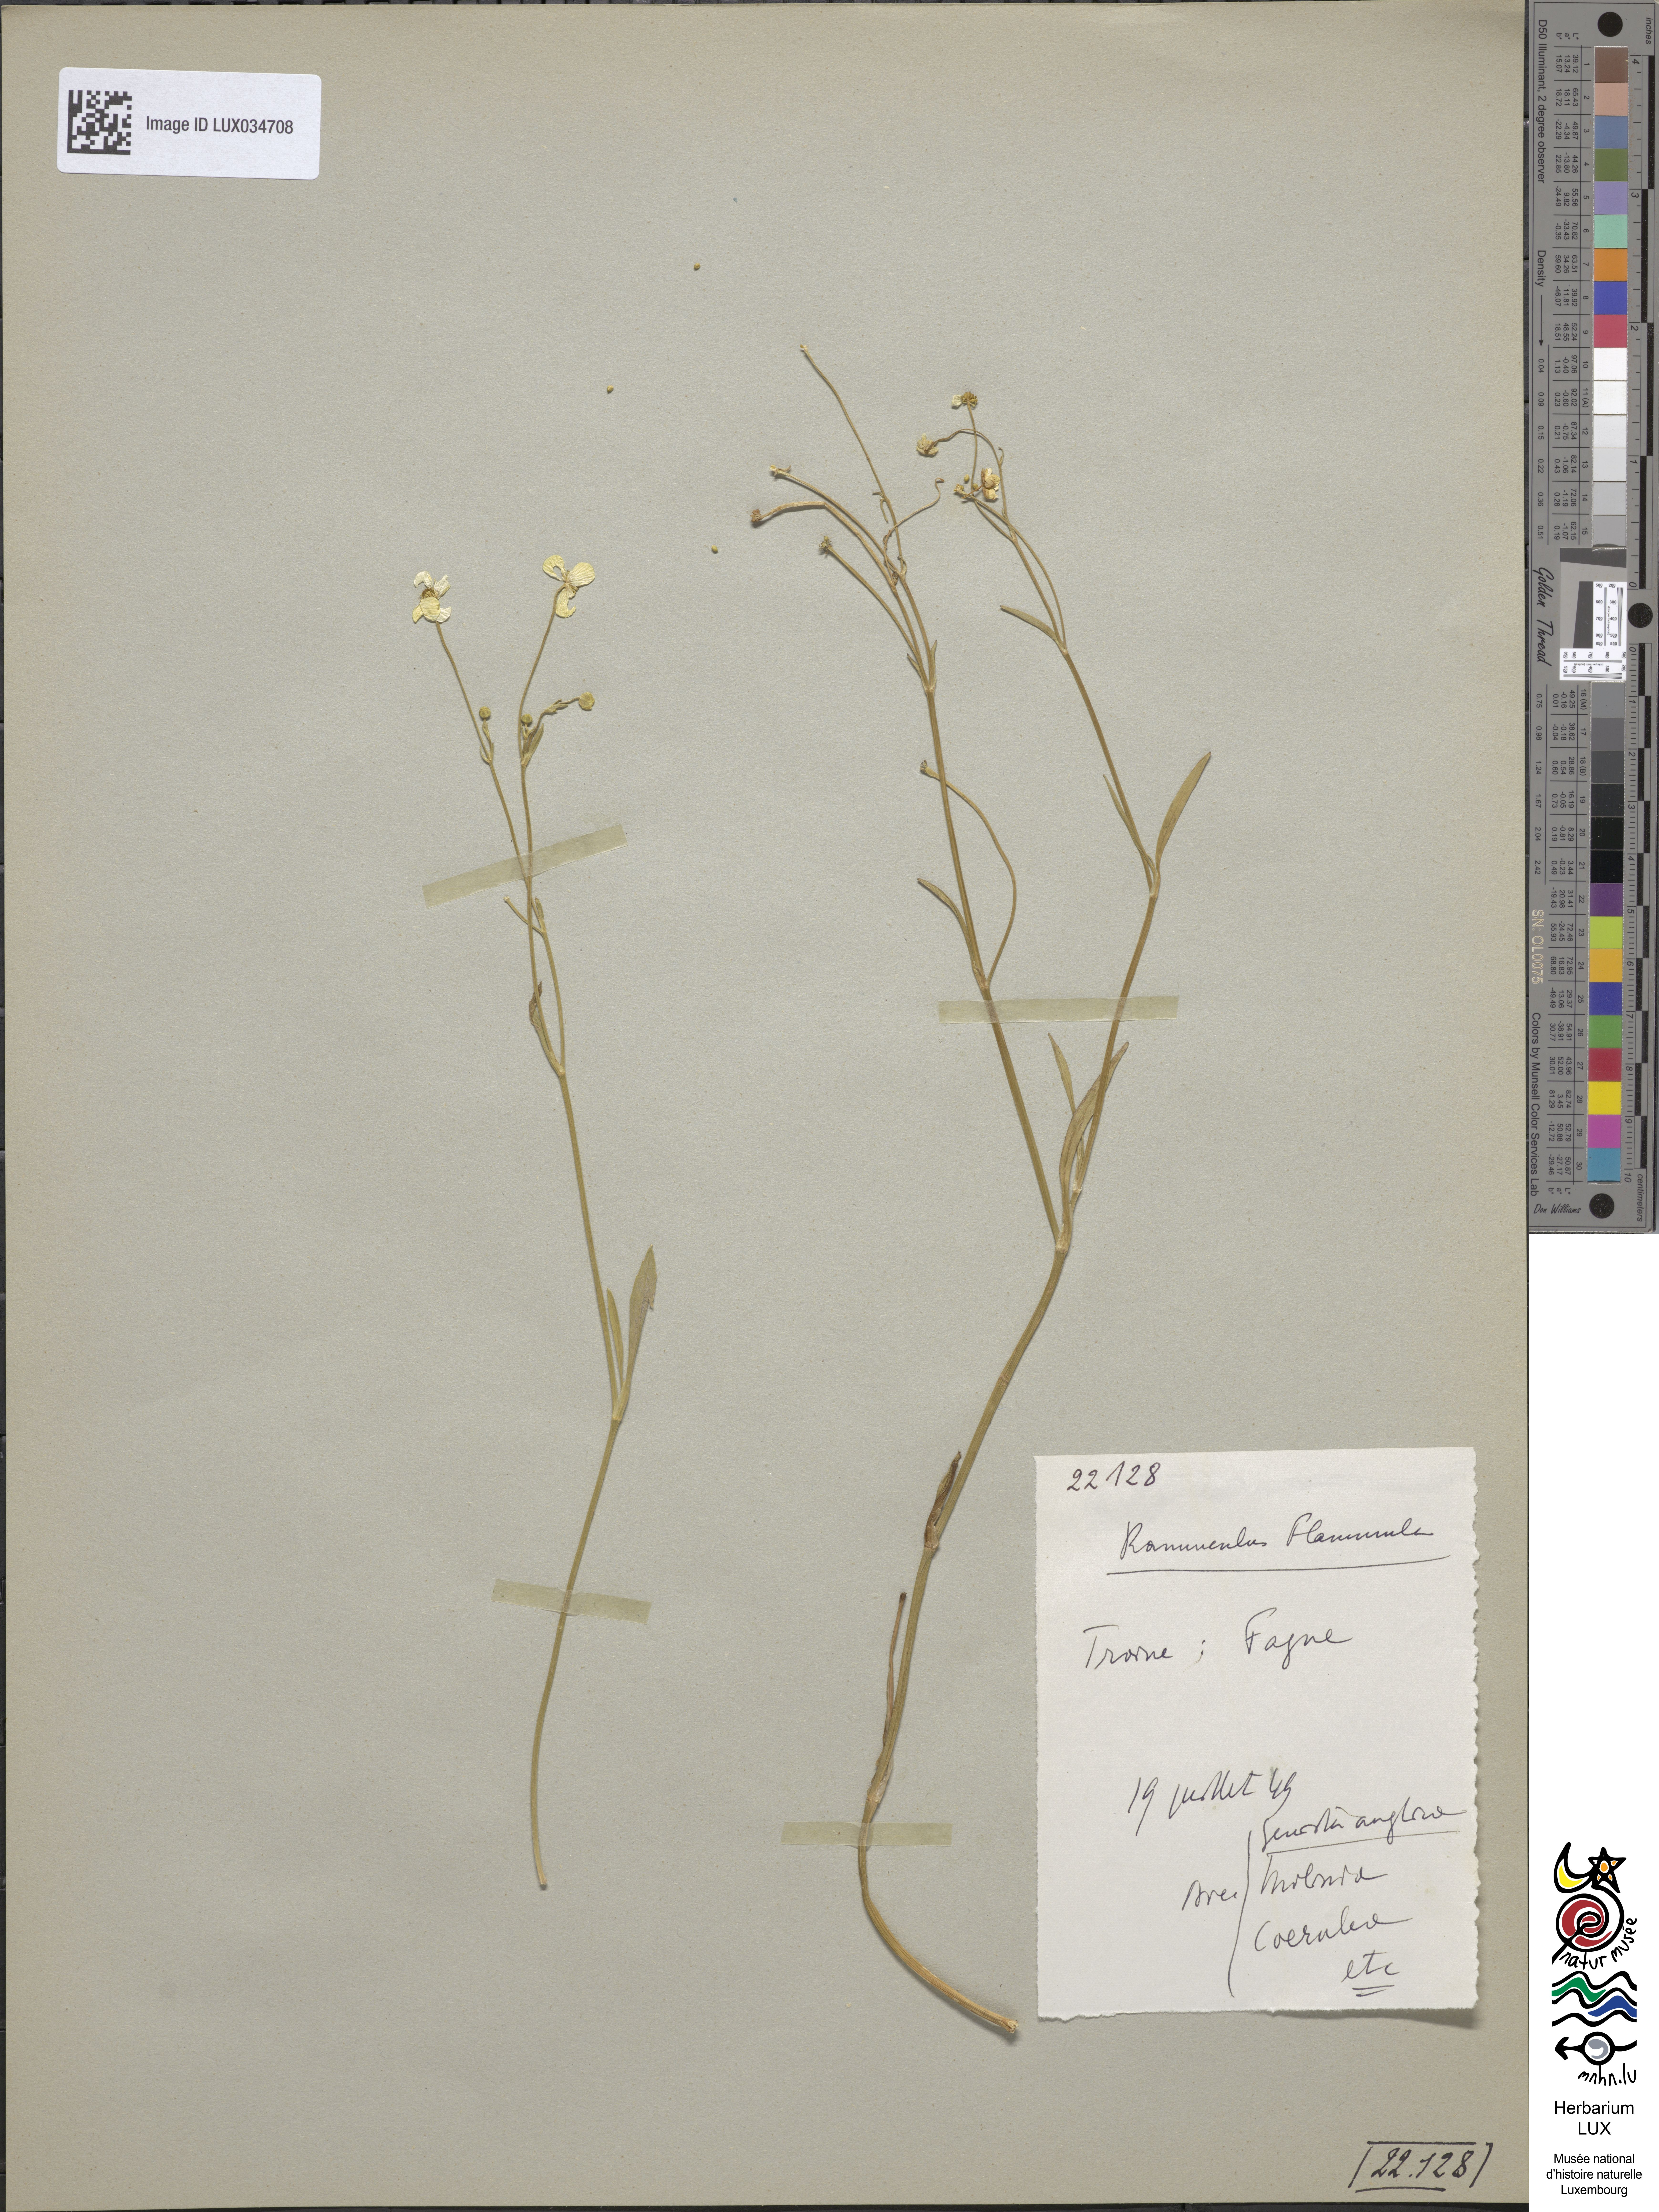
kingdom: Plantae
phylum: Tracheophyta
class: Magnoliopsida
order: Ranunculales
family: Ranunculaceae
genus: Ranunculus
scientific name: Ranunculus flammula
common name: Lesser spearwort
